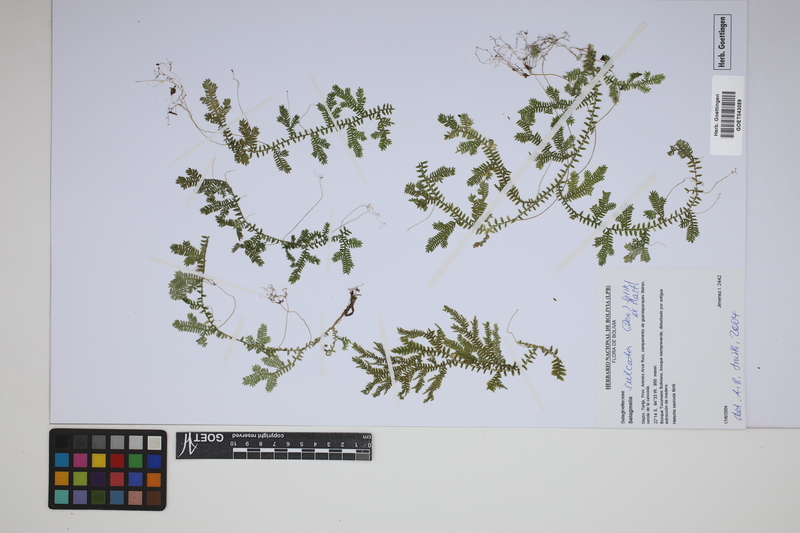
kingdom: Plantae
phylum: Tracheophyta
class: Lycopodiopsida
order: Selaginellales
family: Selaginellaceae
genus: Selaginella
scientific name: Selaginella sulcata
